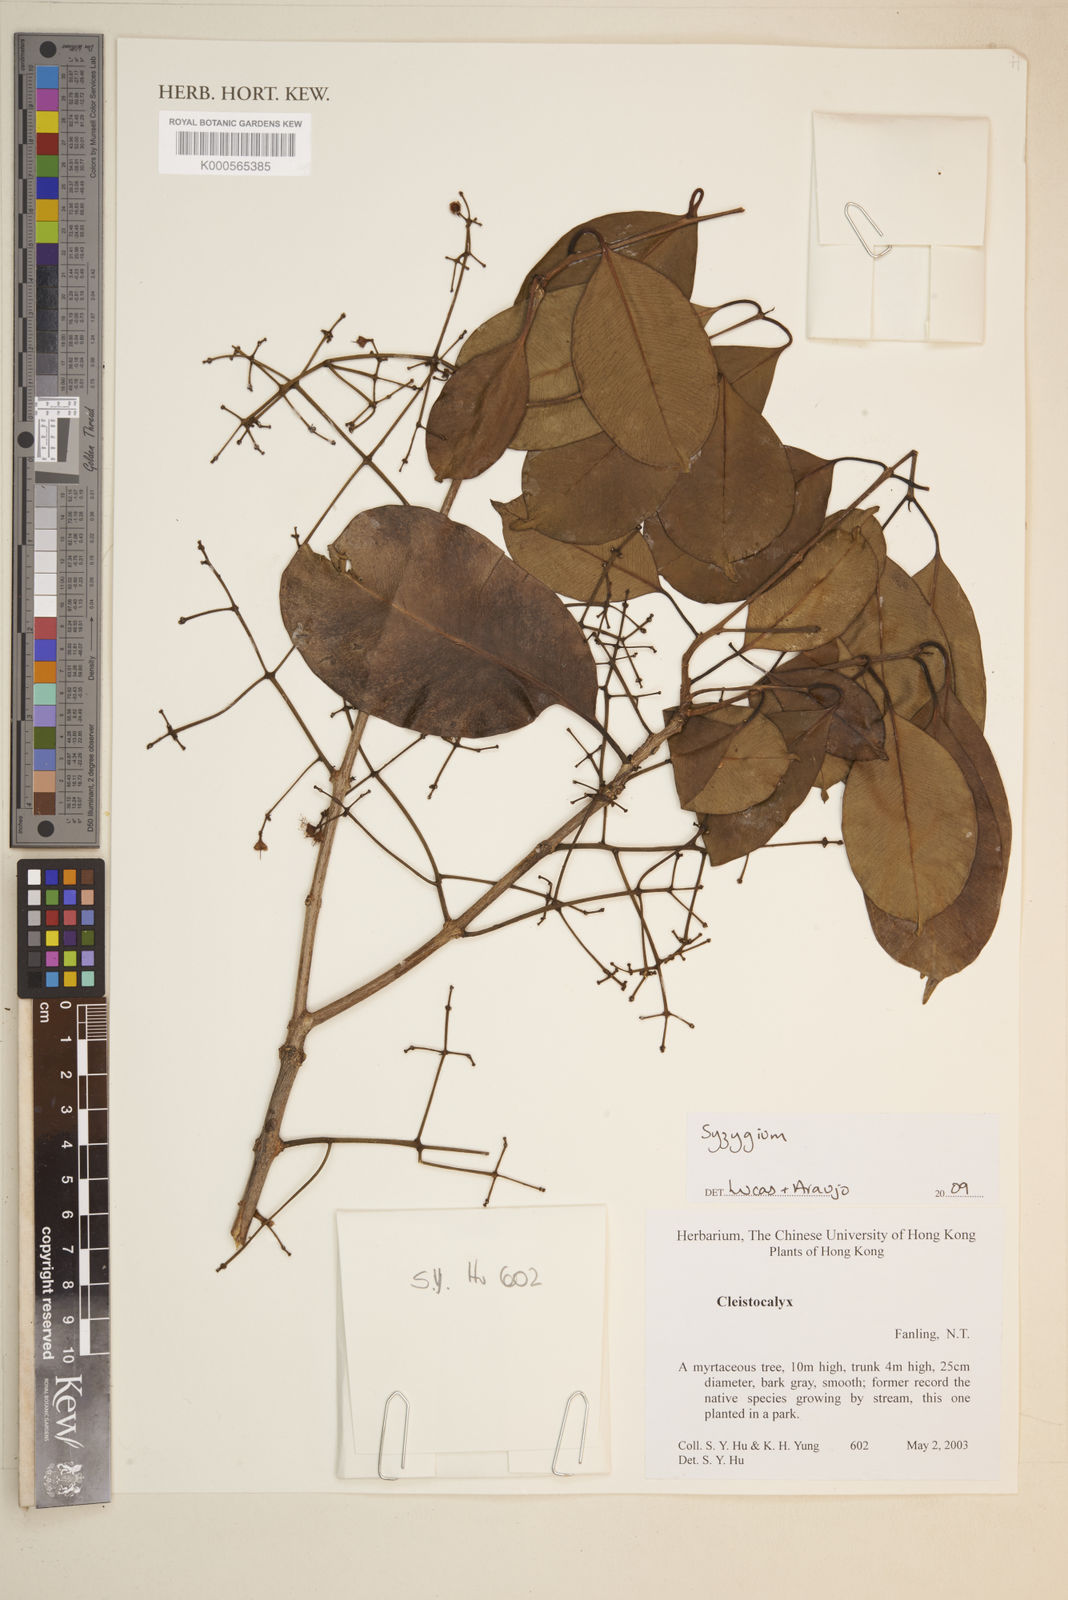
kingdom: Plantae
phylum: Tracheophyta
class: Magnoliopsida
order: Myrtales
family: Myrtaceae
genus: Syzygium
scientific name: Syzygium
